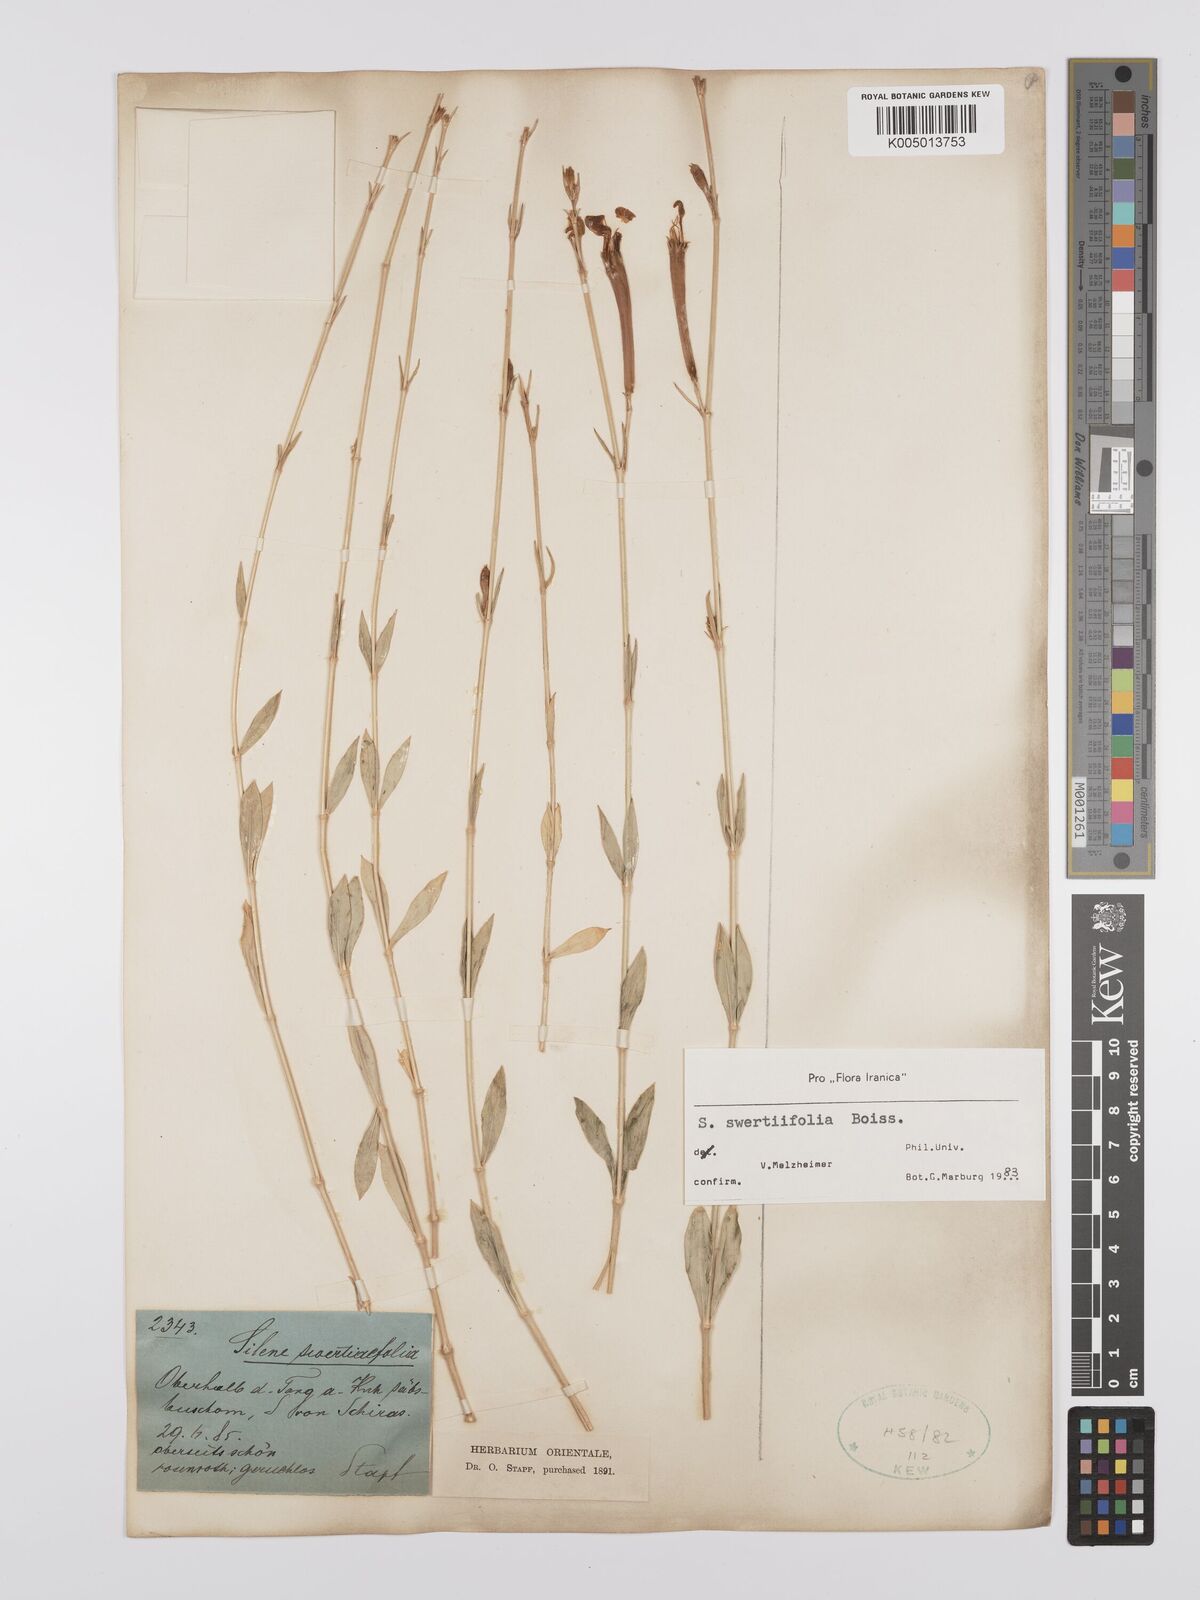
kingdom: Plantae
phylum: Tracheophyta
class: Magnoliopsida
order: Caryophyllales
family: Caryophyllaceae
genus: Silene
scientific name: Silene swertiifolia
